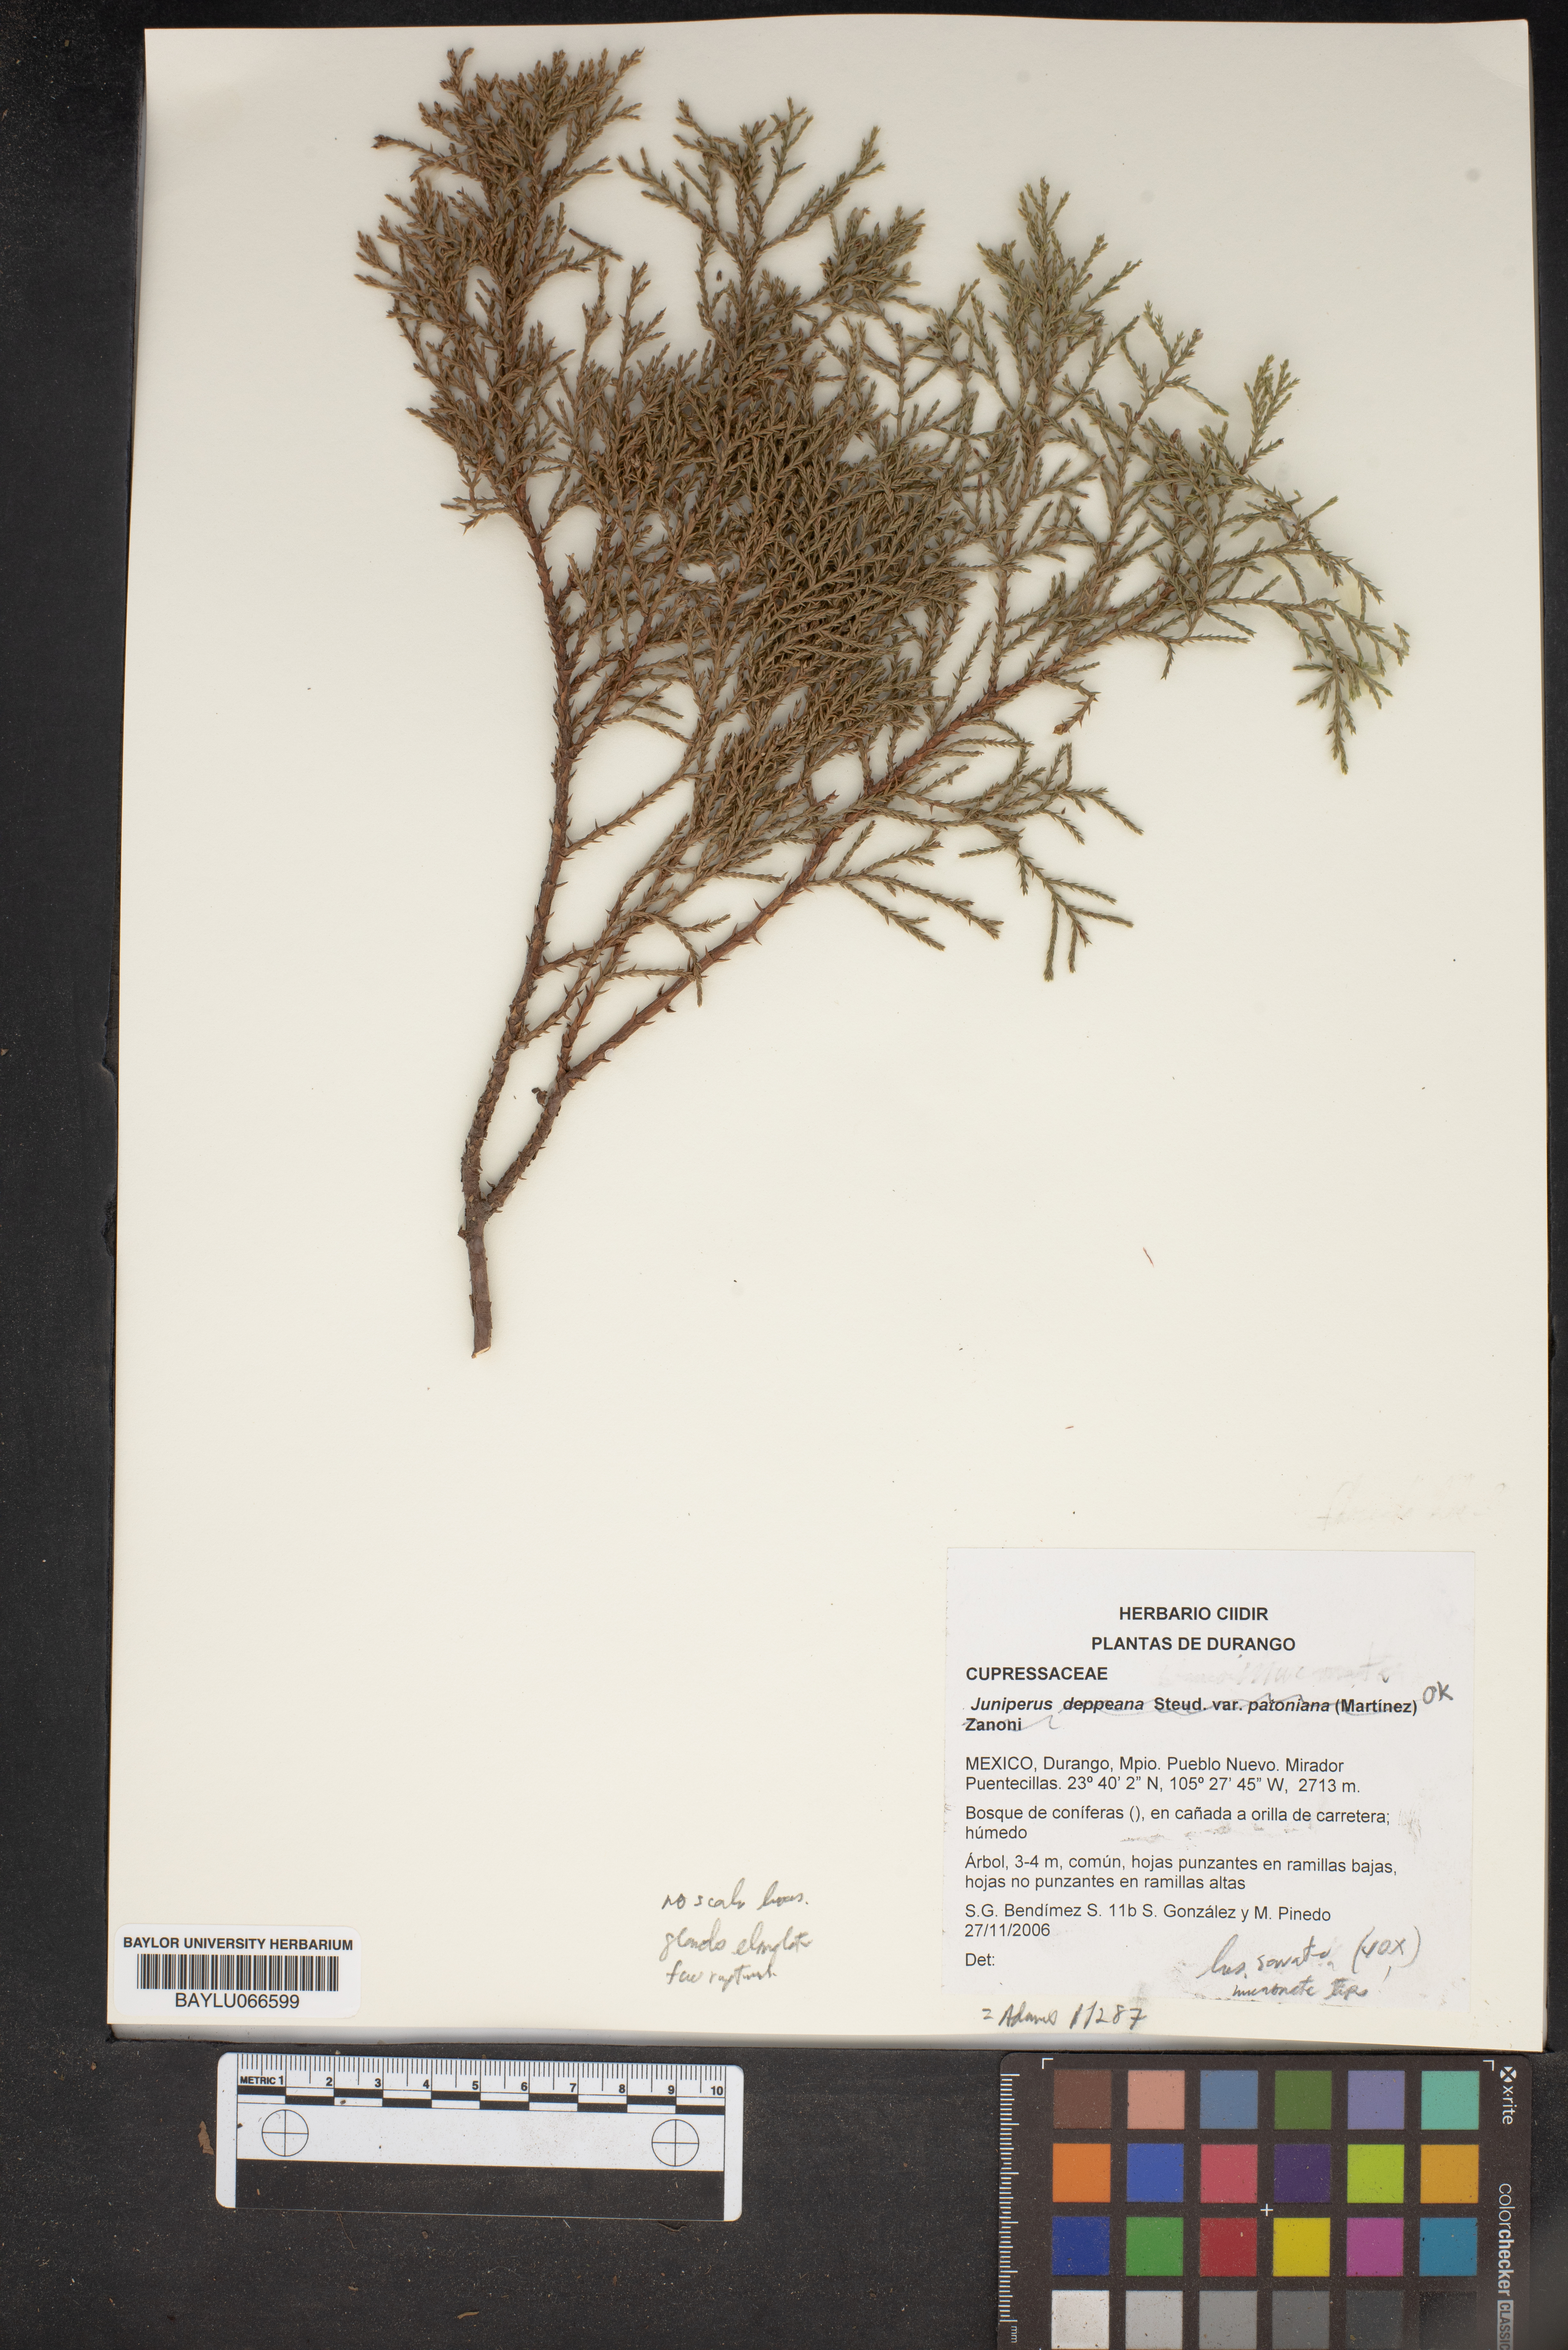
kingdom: Plantae
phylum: Tracheophyta
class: Pinopsida
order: Pinales
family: Cupressaceae
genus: Juniperus
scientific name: Juniperus deppeana
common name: Alligator juniper
